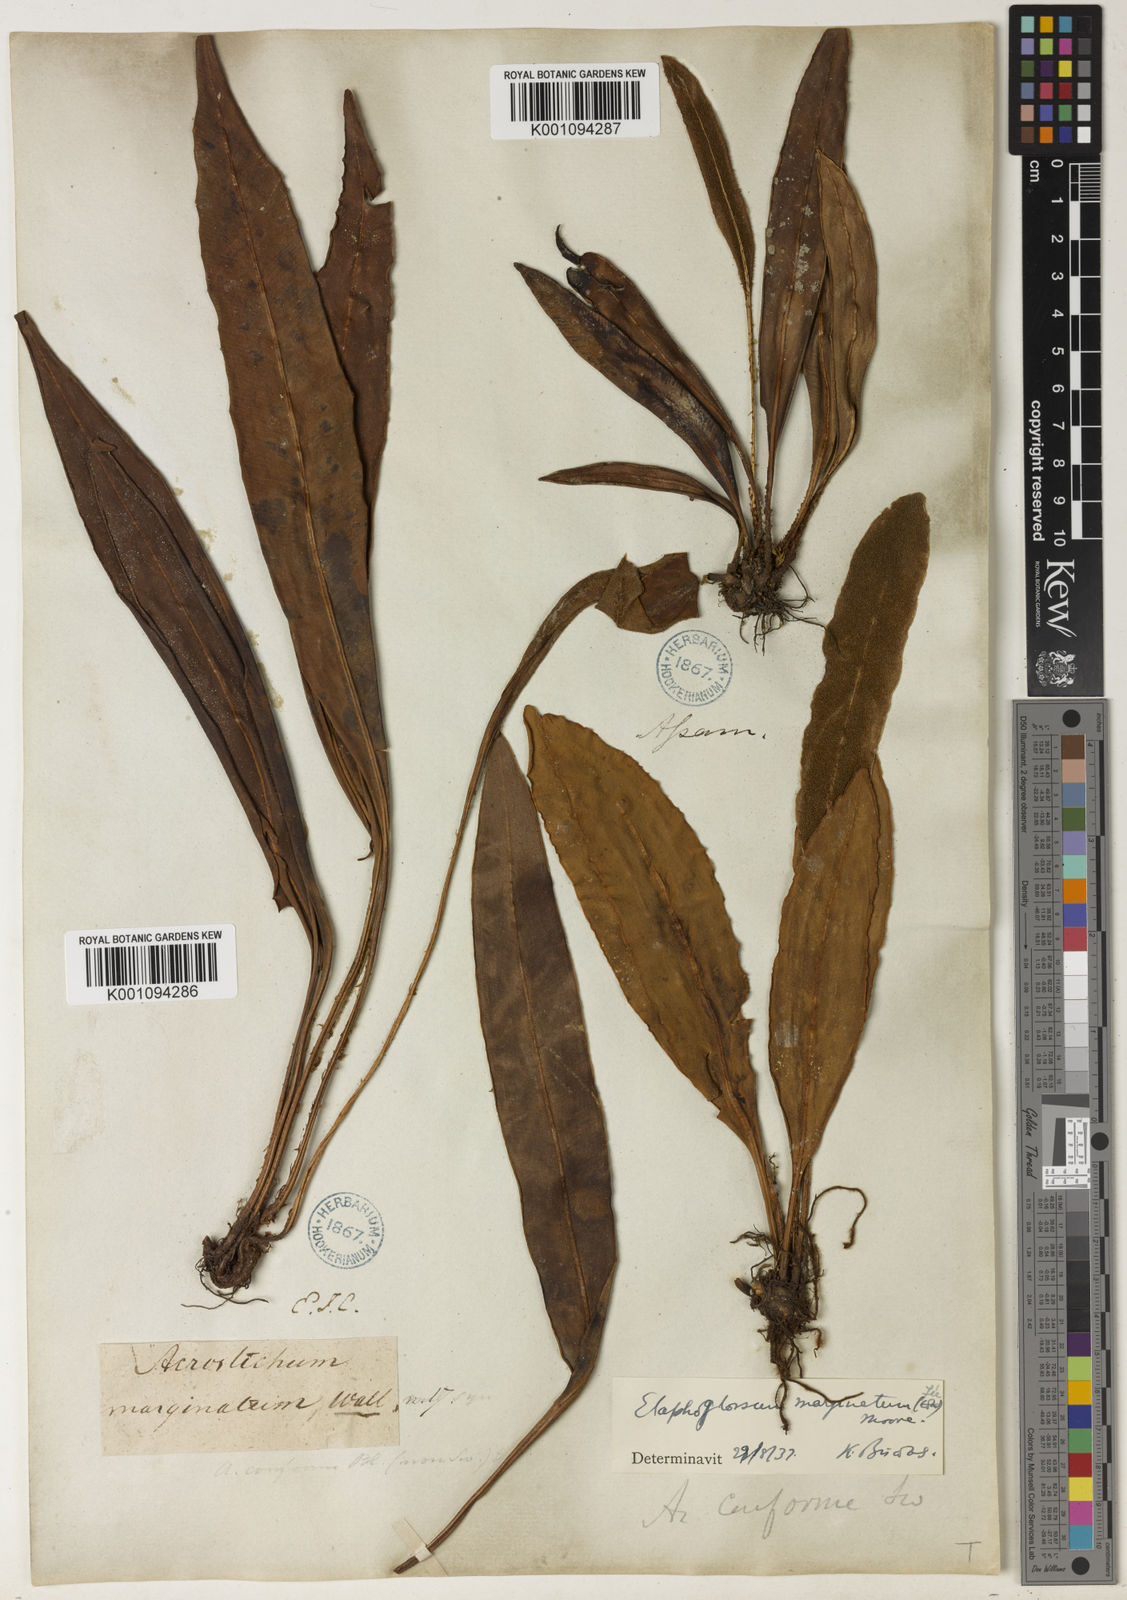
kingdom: Plantae
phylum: Tracheophyta
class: Polypodiopsida
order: Polypodiales
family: Dryopteridaceae
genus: Elaphoglossum
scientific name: Elaphoglossum
